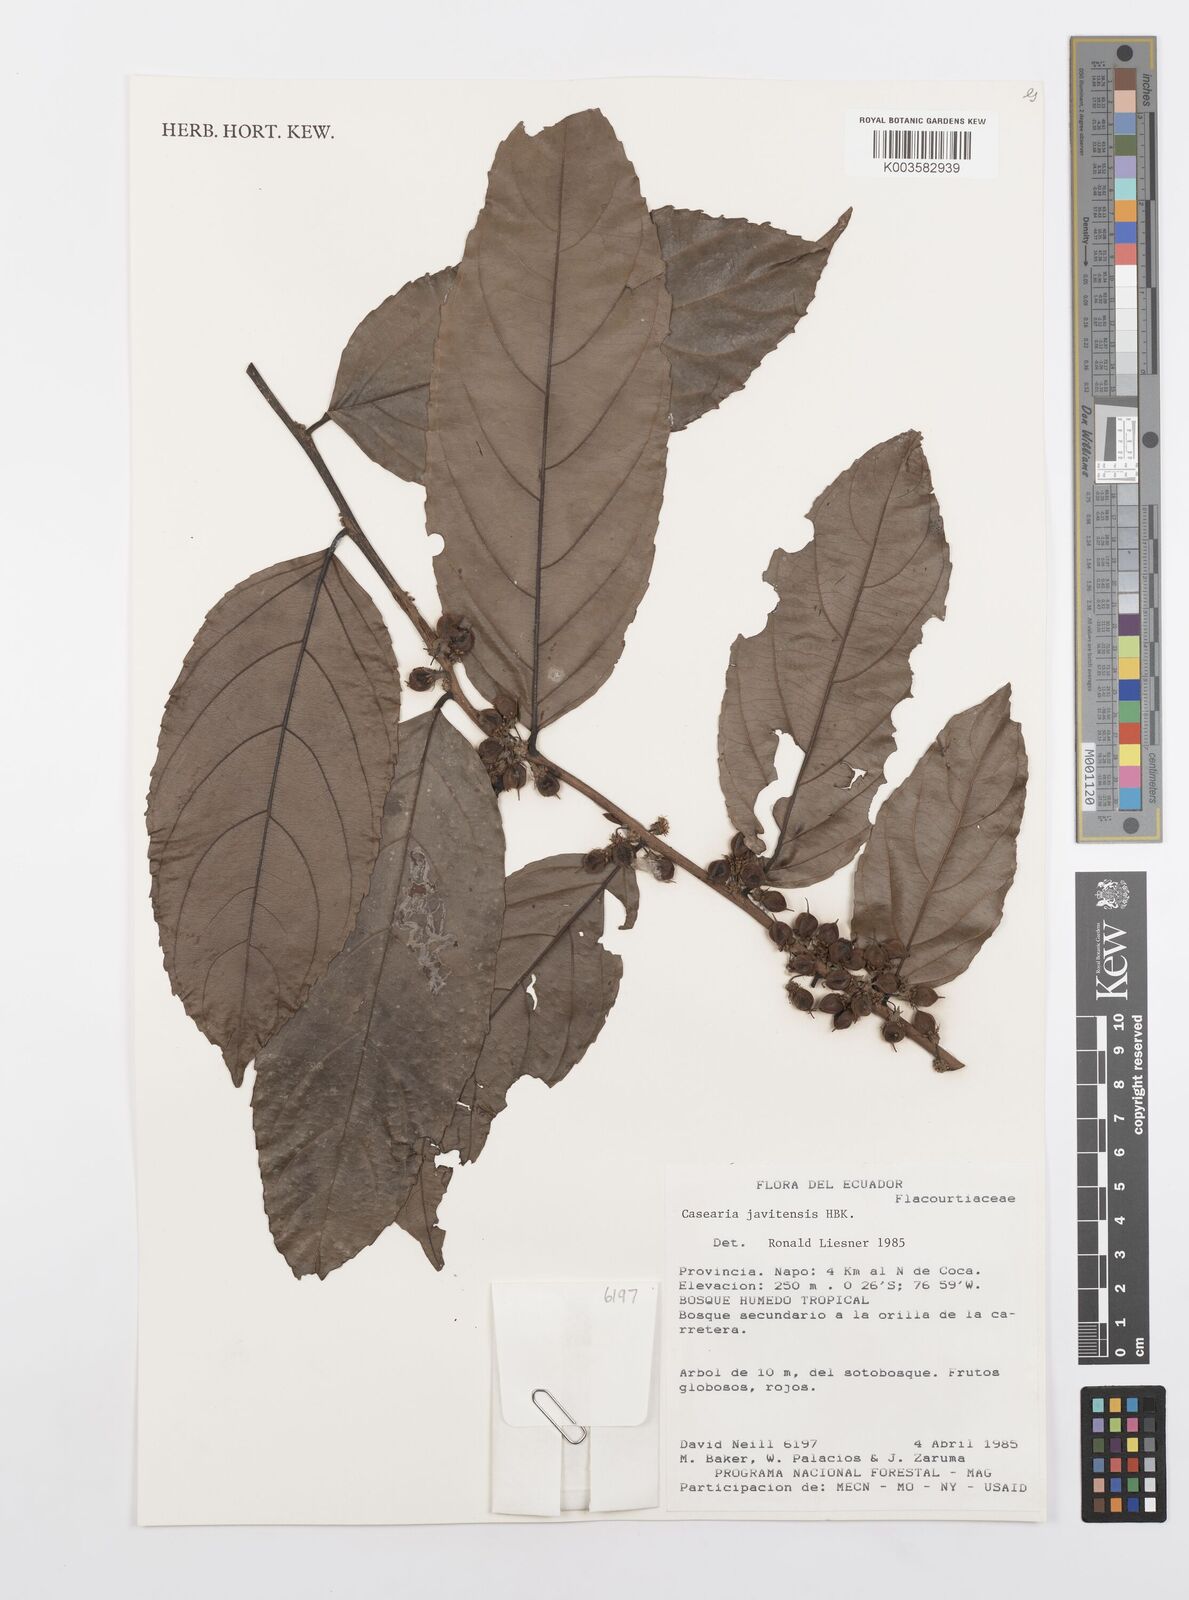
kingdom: Plantae
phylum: Tracheophyta
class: Magnoliopsida
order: Malpighiales
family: Salicaceae
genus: Piparea
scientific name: Piparea multiflora
